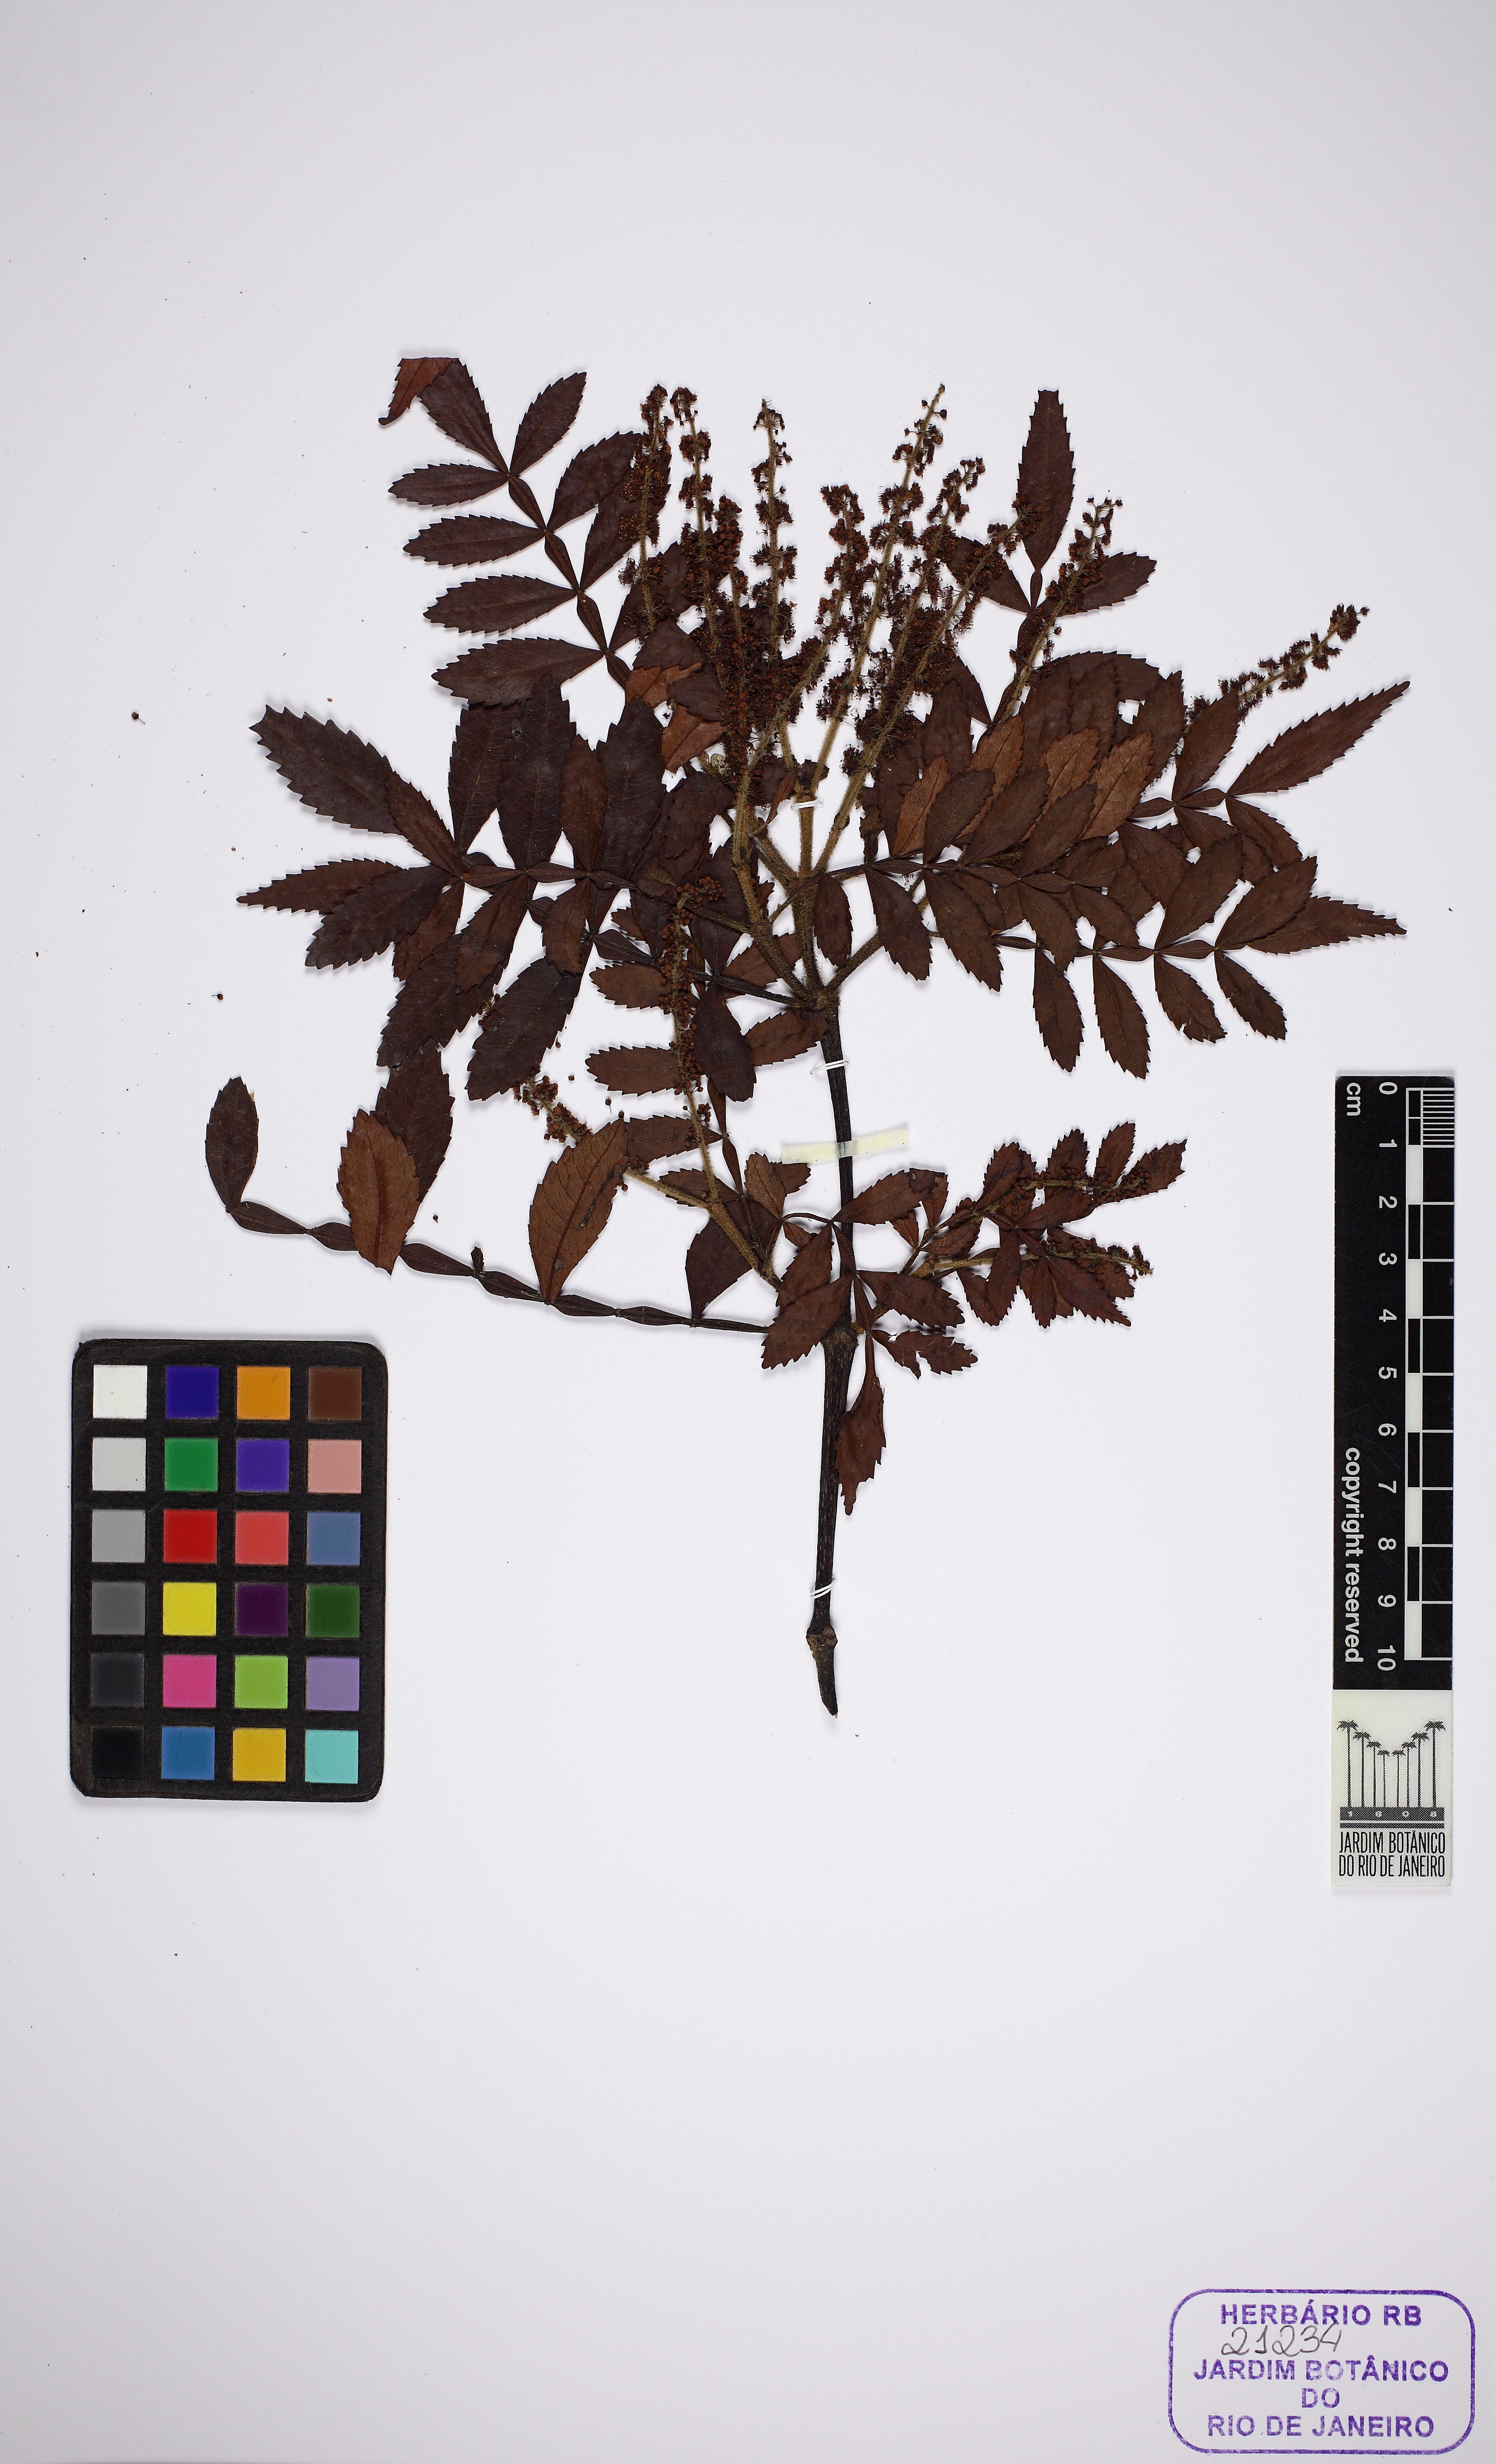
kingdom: Plantae
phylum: Tracheophyta
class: Magnoliopsida
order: Oxalidales
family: Cunoniaceae
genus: Weinmannia
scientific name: Weinmannia paullinifolia
